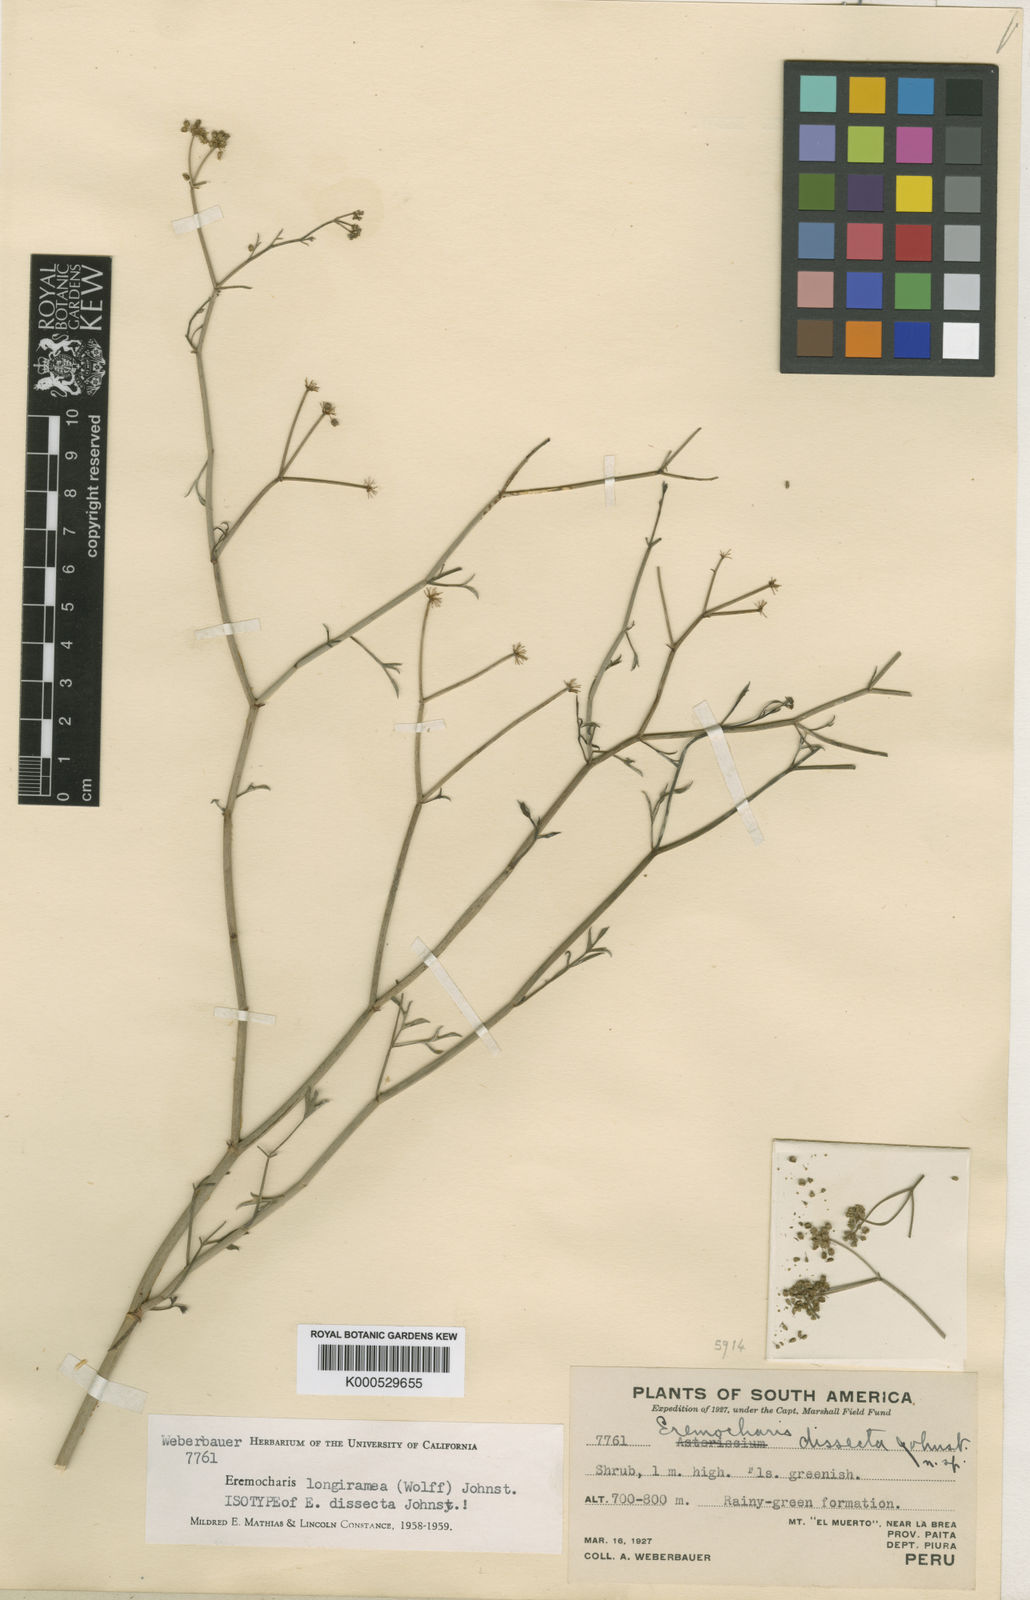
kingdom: Plantae
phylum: Tracheophyta
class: Magnoliopsida
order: Apiales
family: Apiaceae
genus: Eremocharis
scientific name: Eremocharis longiramea
